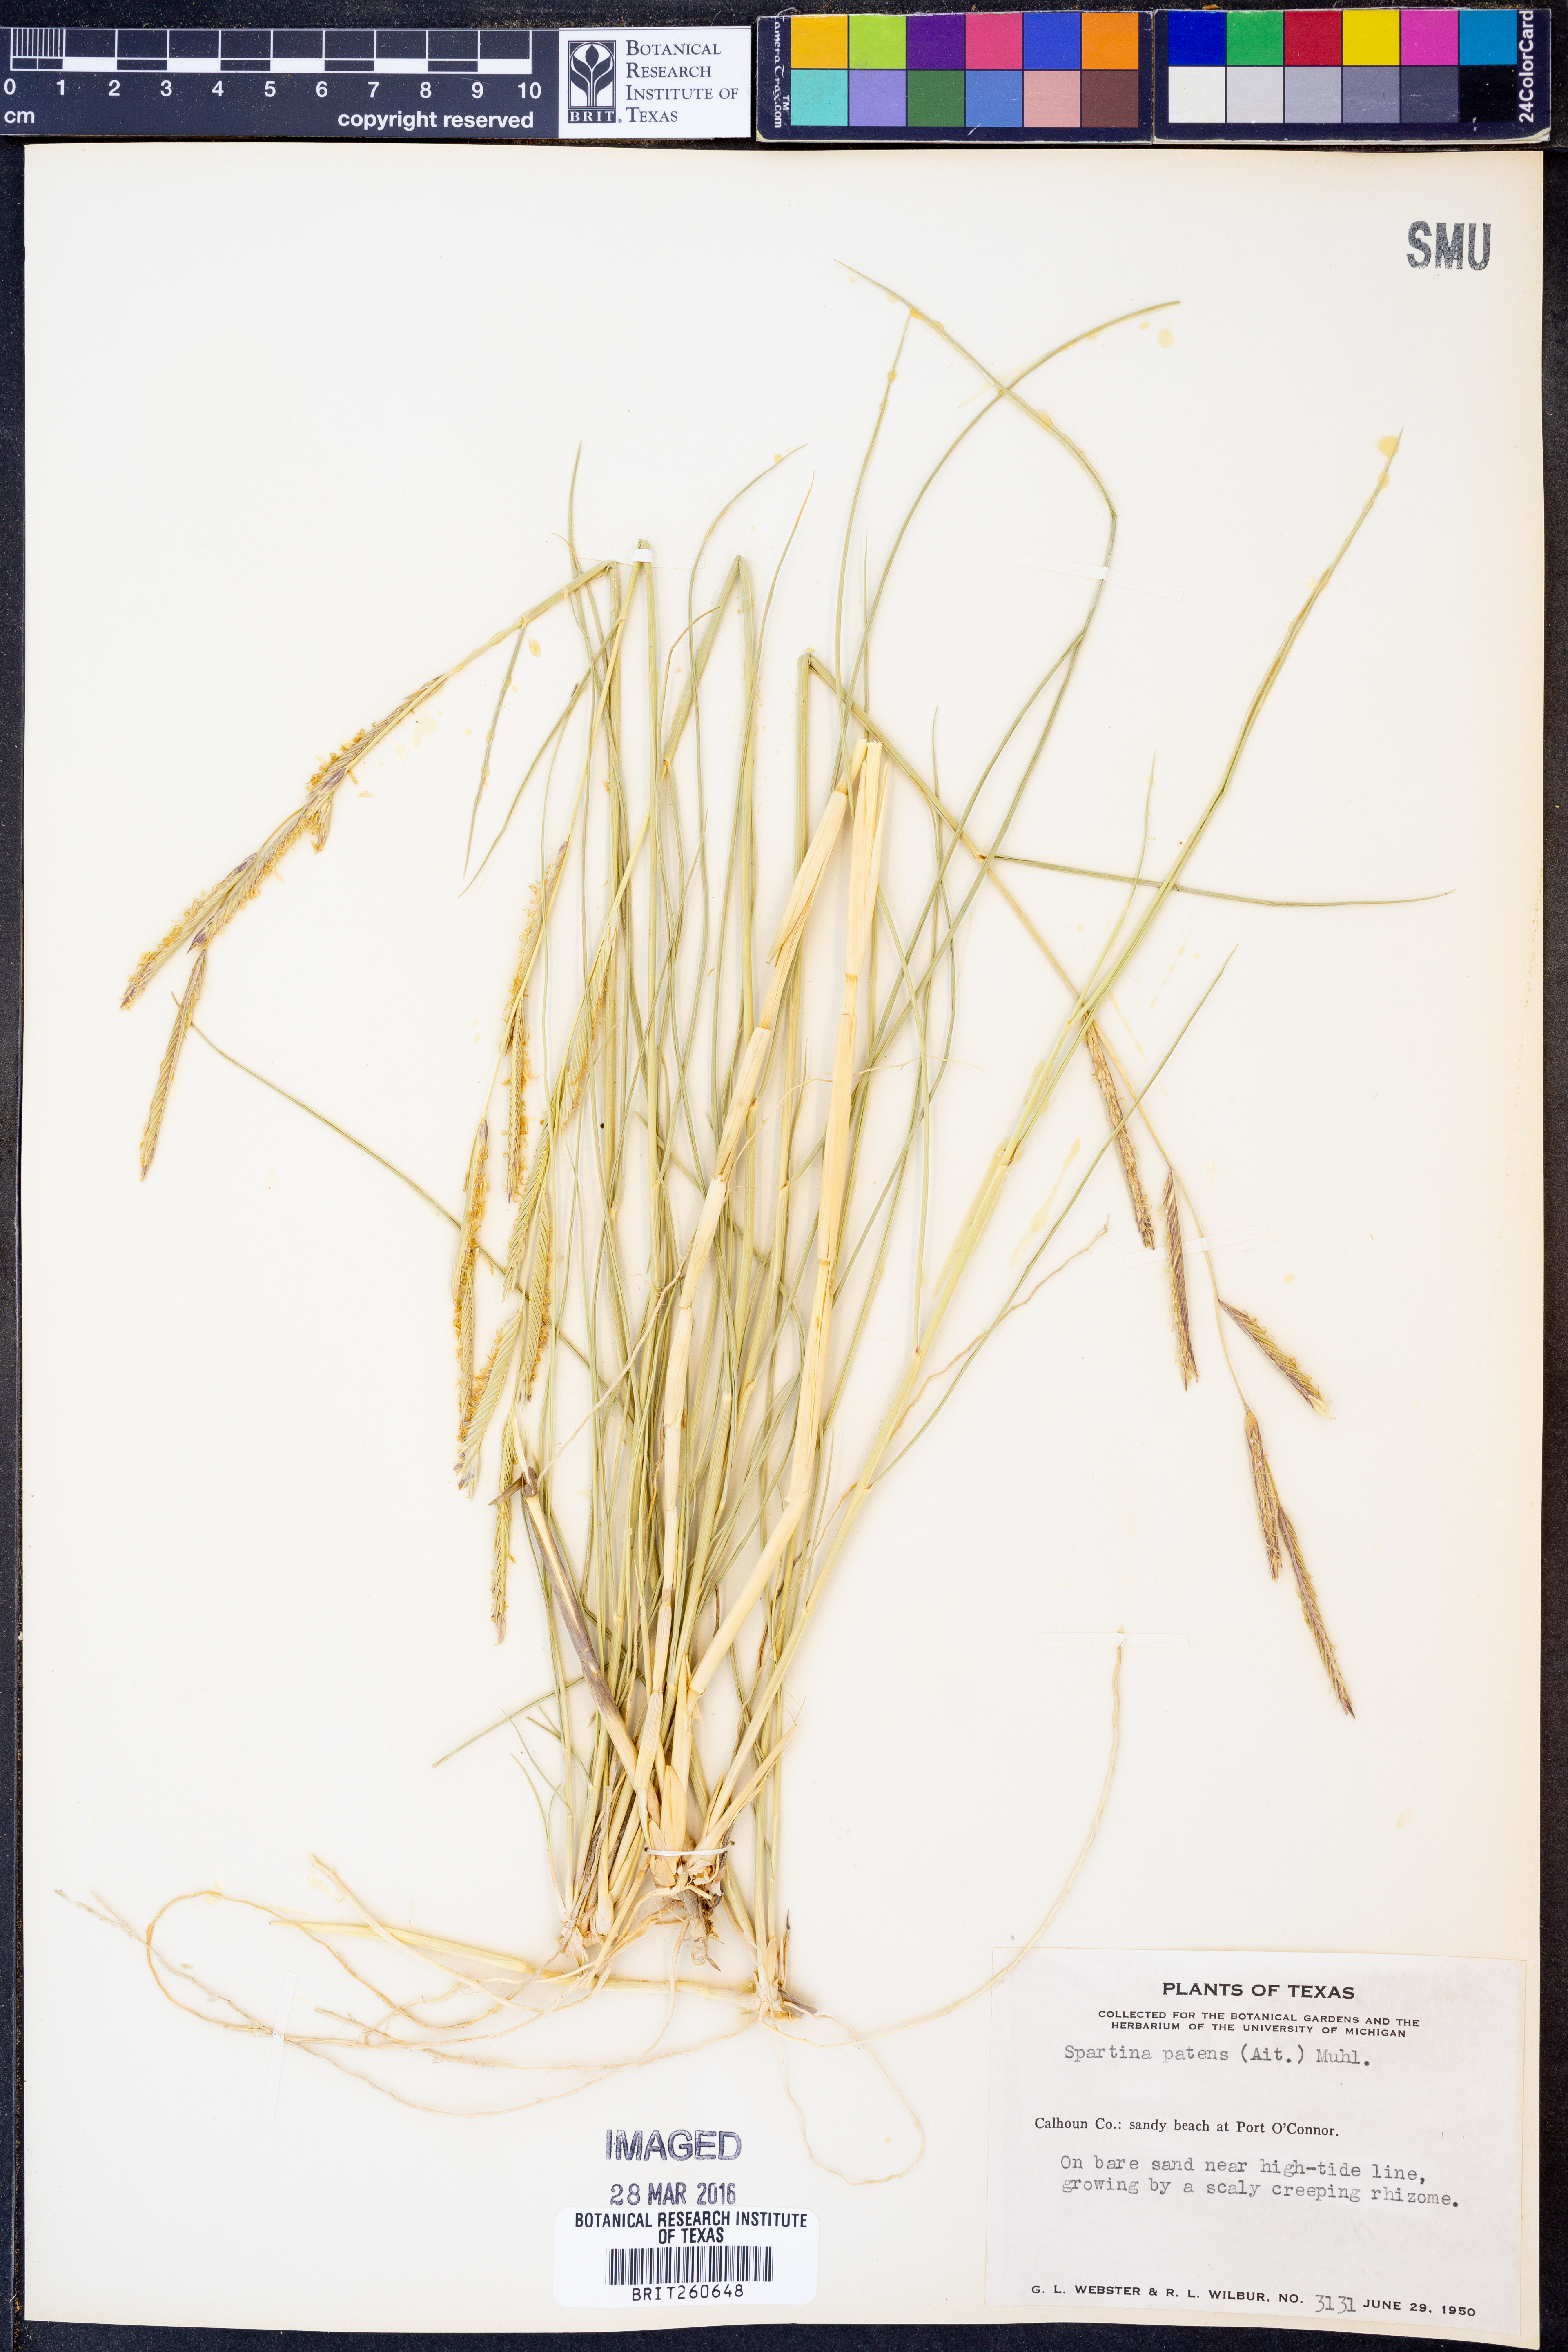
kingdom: Plantae
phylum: Tracheophyta
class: Liliopsida
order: Poales
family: Poaceae
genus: Sporobolus
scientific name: Sporobolus pumilus
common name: Highwater grass
